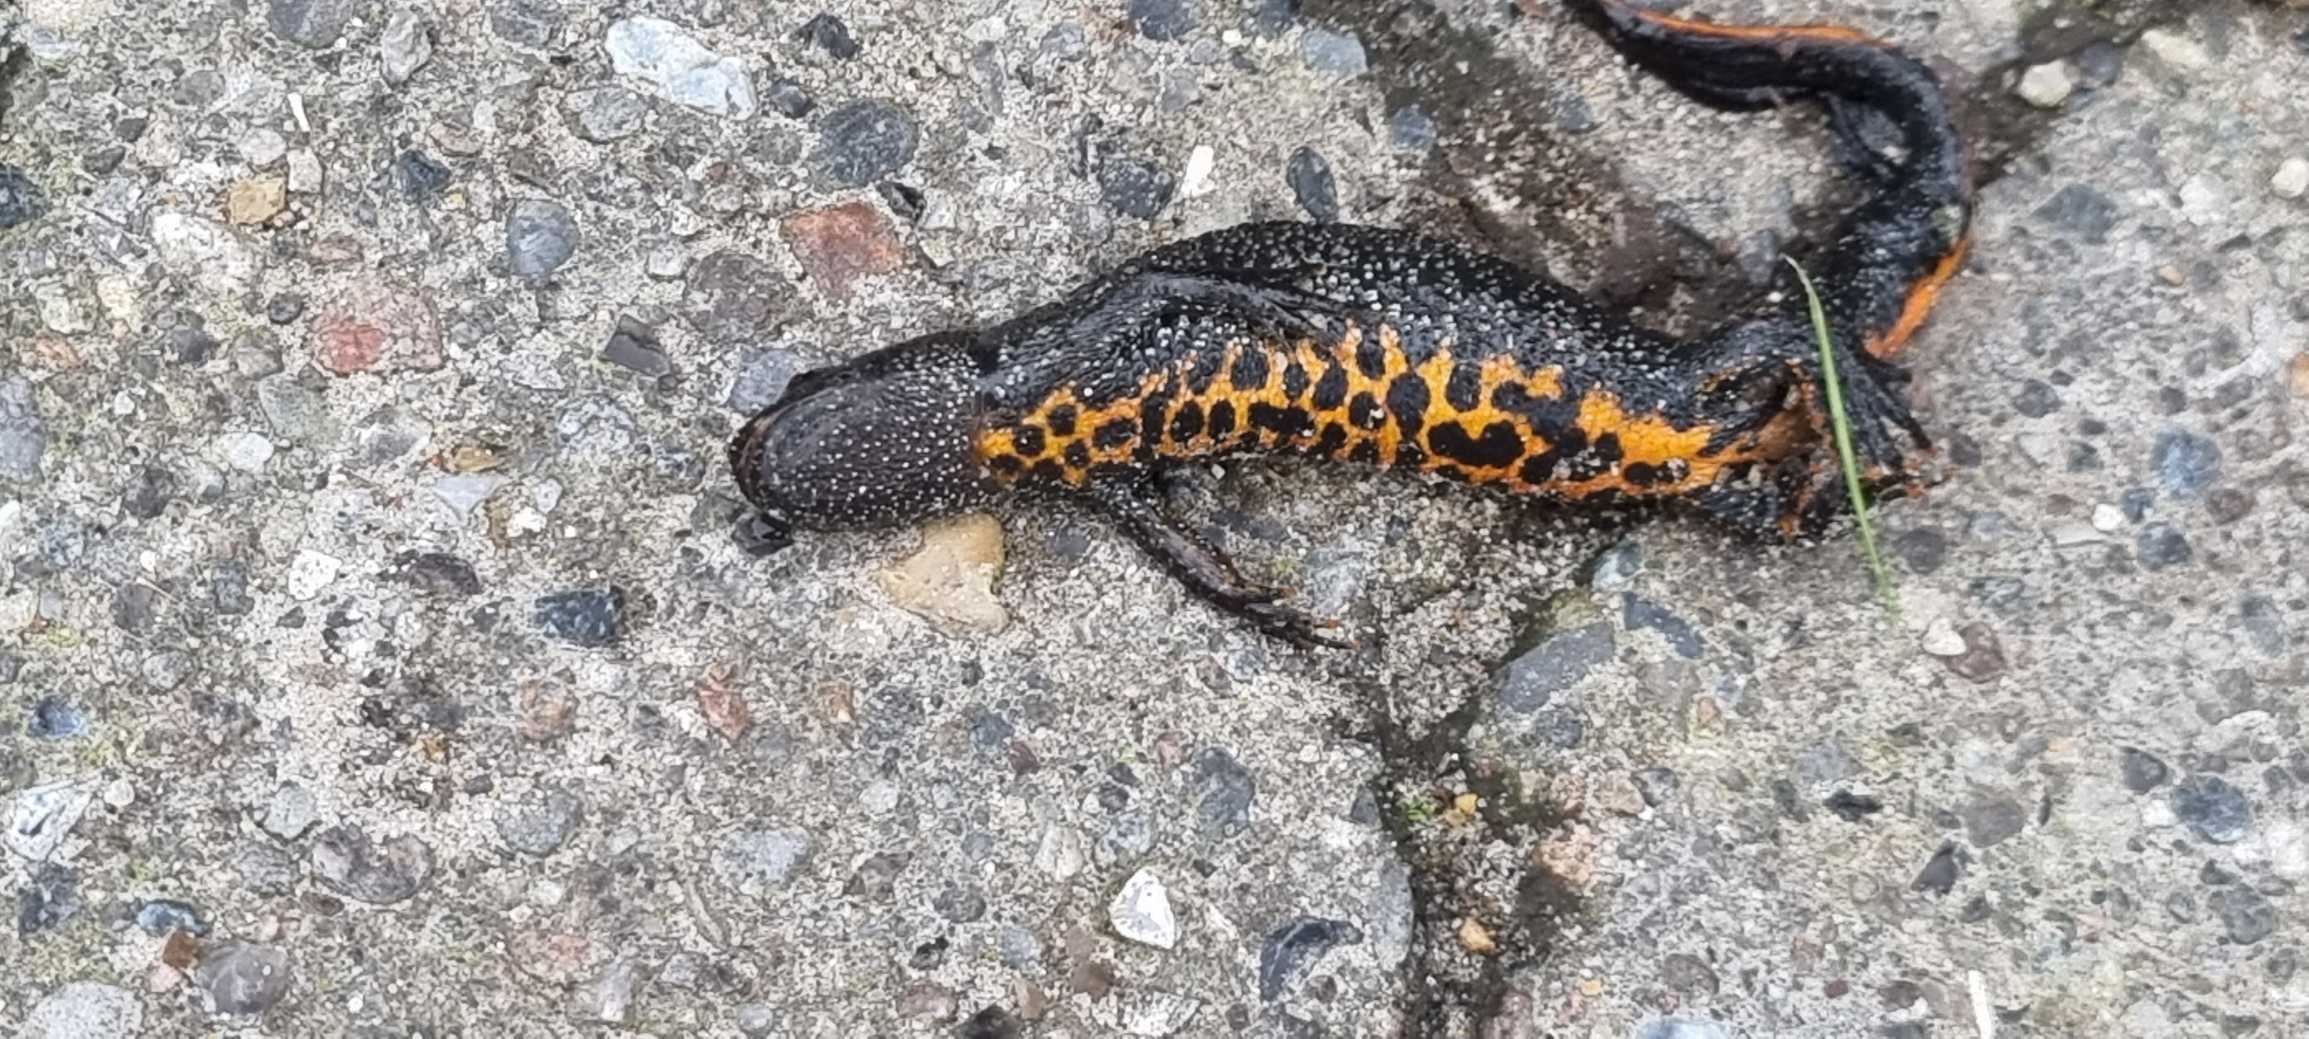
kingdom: Animalia
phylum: Chordata
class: Amphibia
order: Caudata
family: Salamandridae
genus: Triturus
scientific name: Triturus cristatus
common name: Stor vandsalamander
